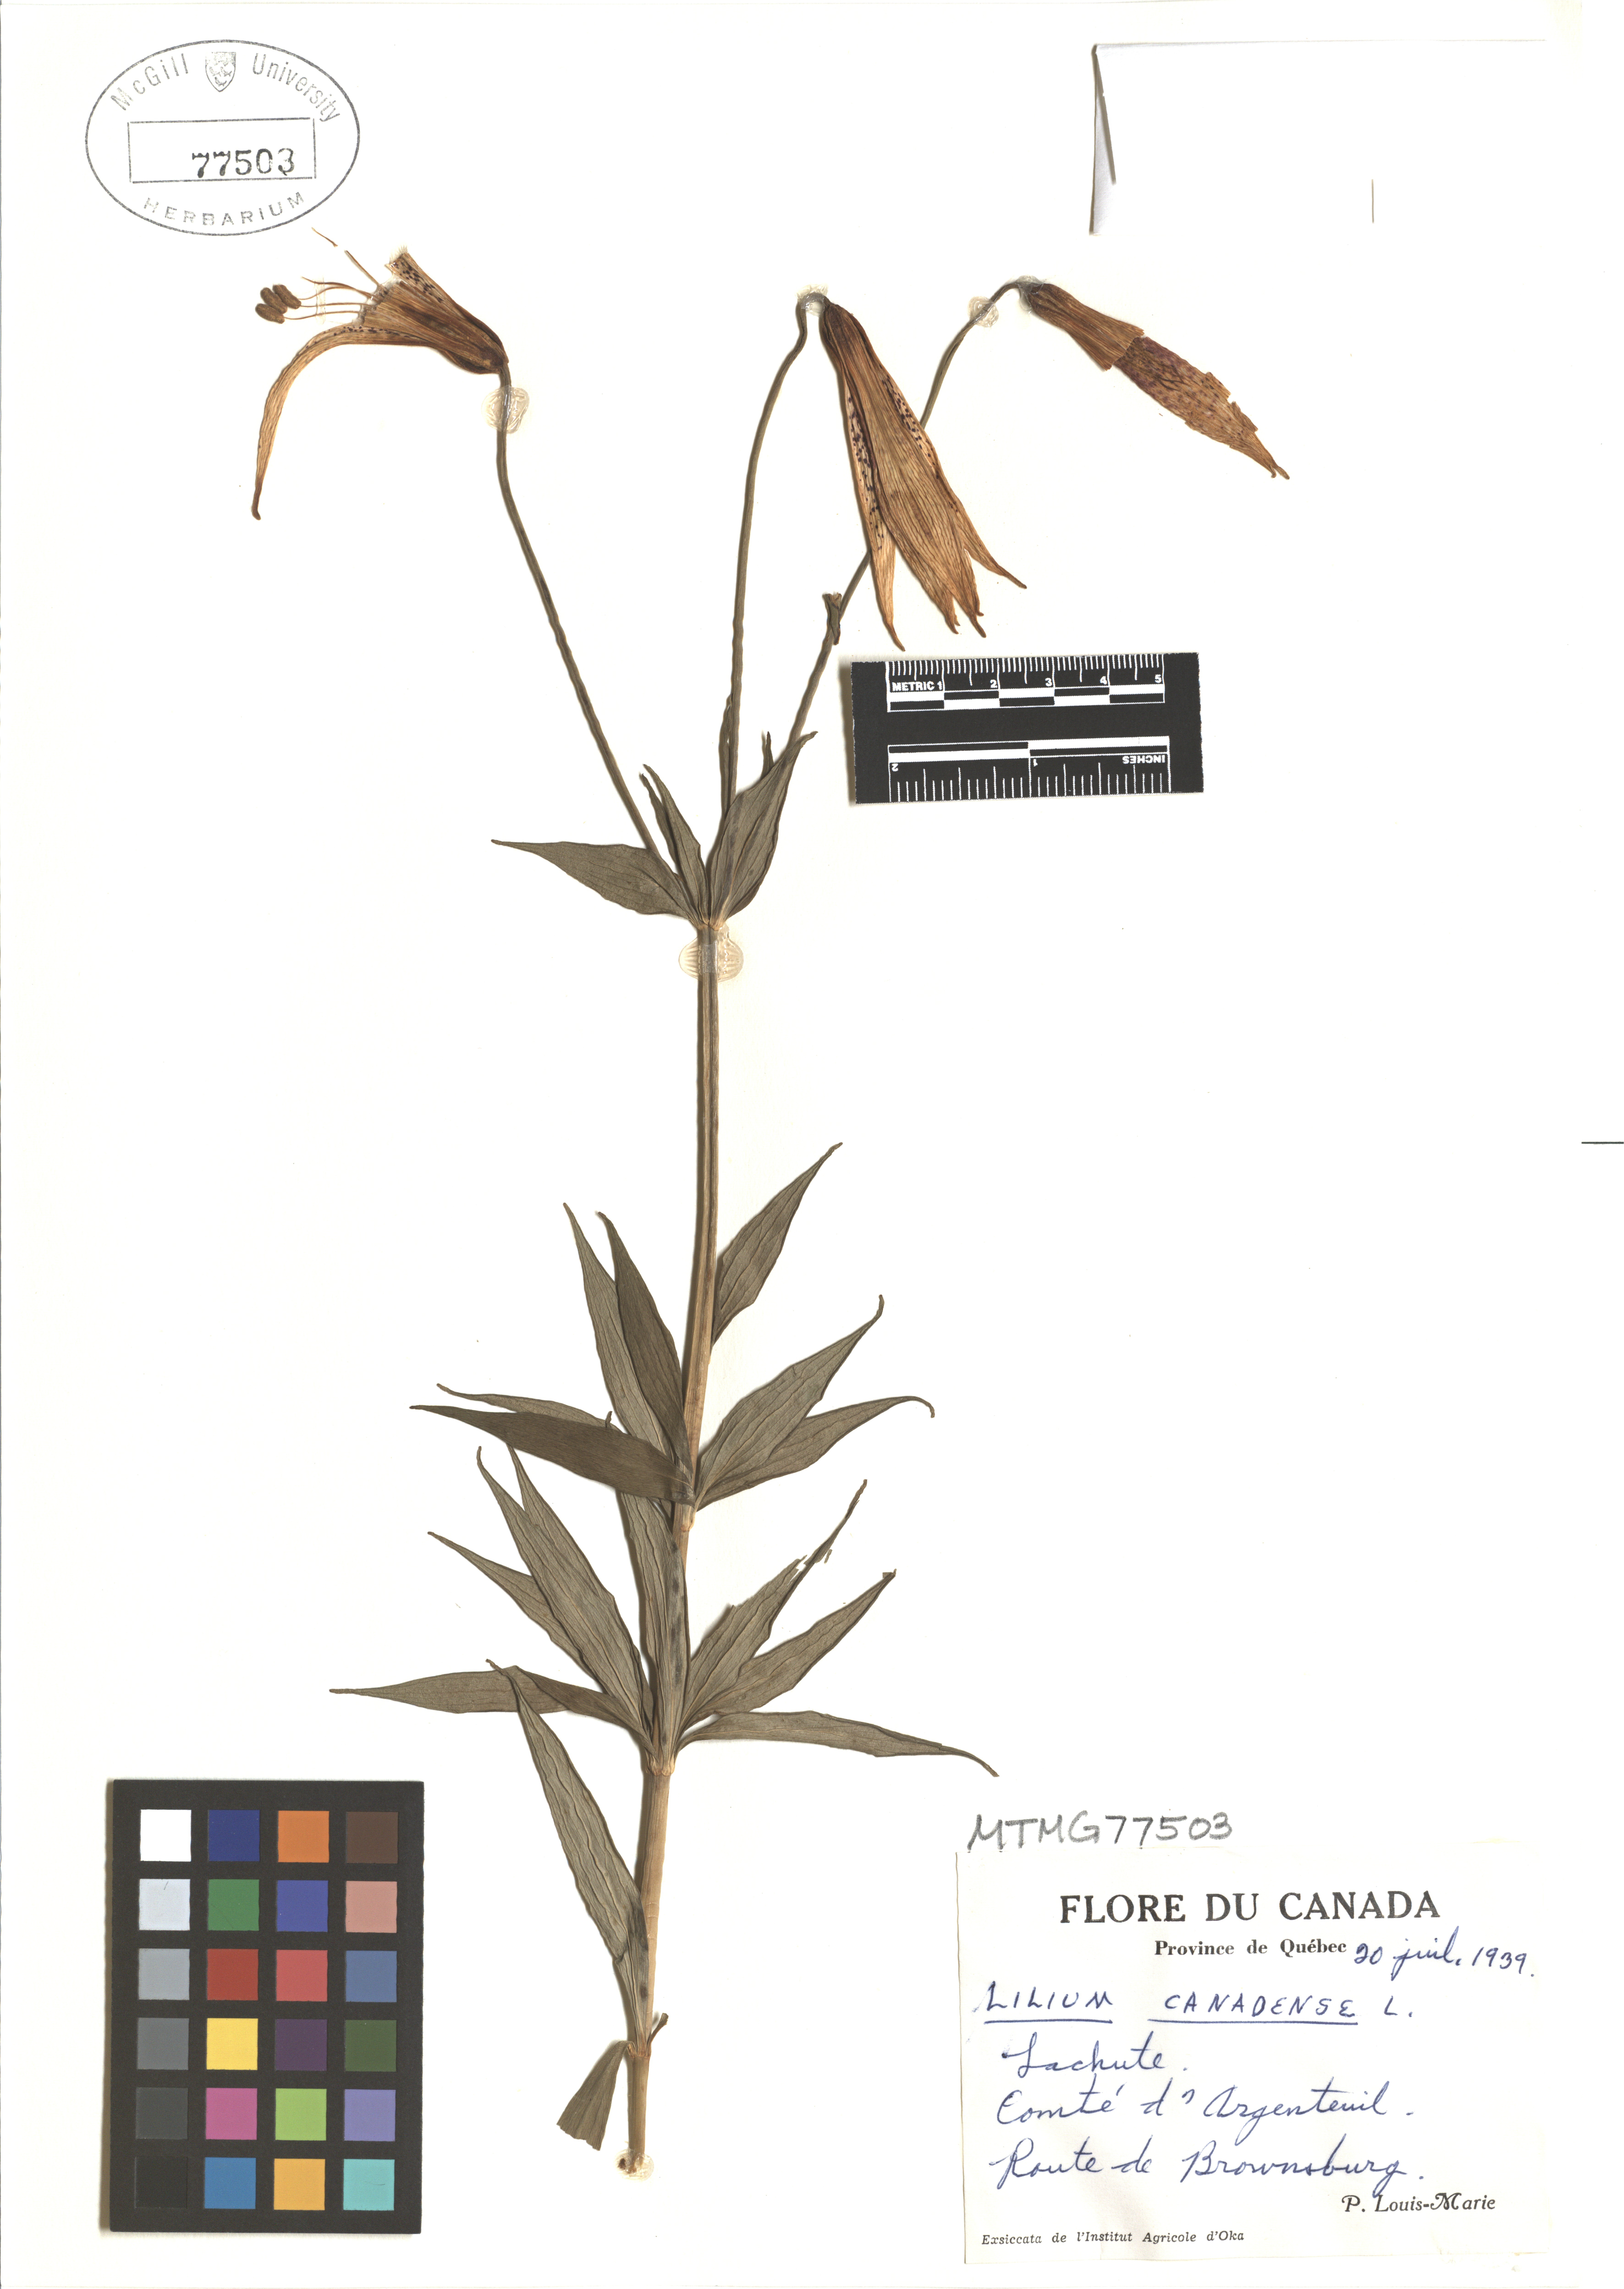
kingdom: Plantae
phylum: Tracheophyta
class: Liliopsida
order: Liliales
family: Liliaceae
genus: Lilium
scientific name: Lilium canadense
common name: Canada lily
